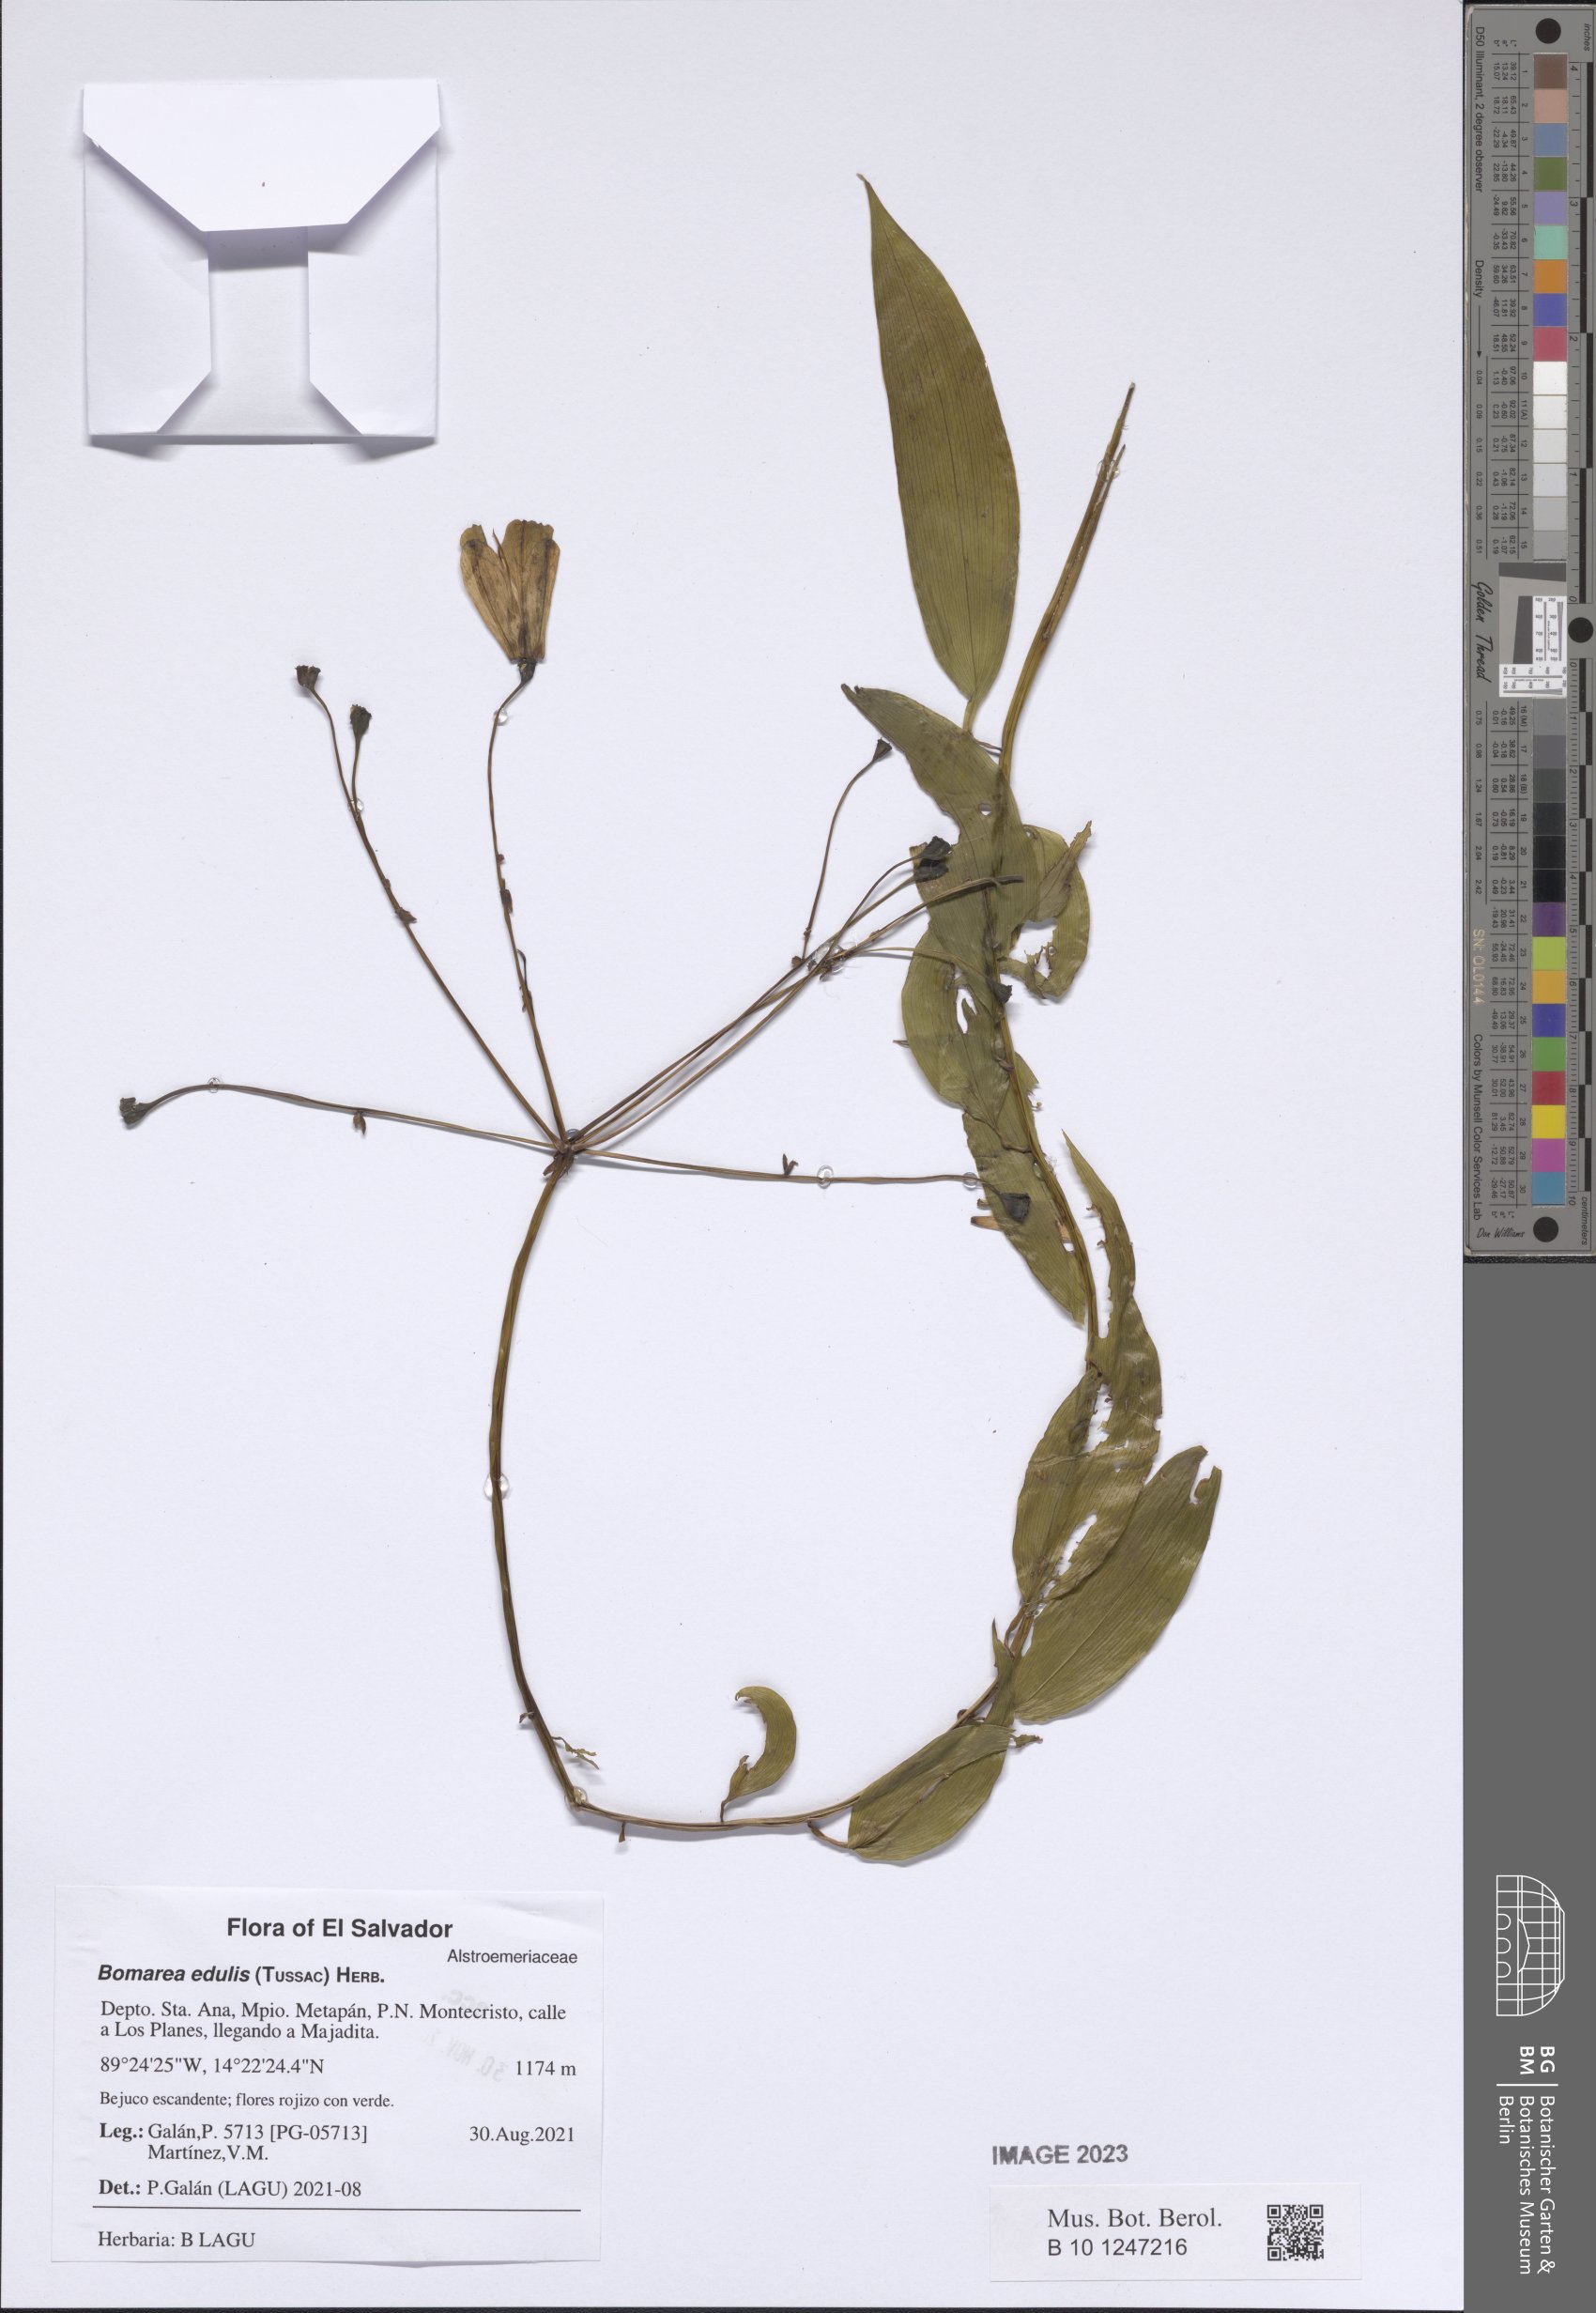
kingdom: Plantae
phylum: Tracheophyta
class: Liliopsida
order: Liliales
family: Alstroemeriaceae
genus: Bomarea
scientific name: Bomarea edulis
